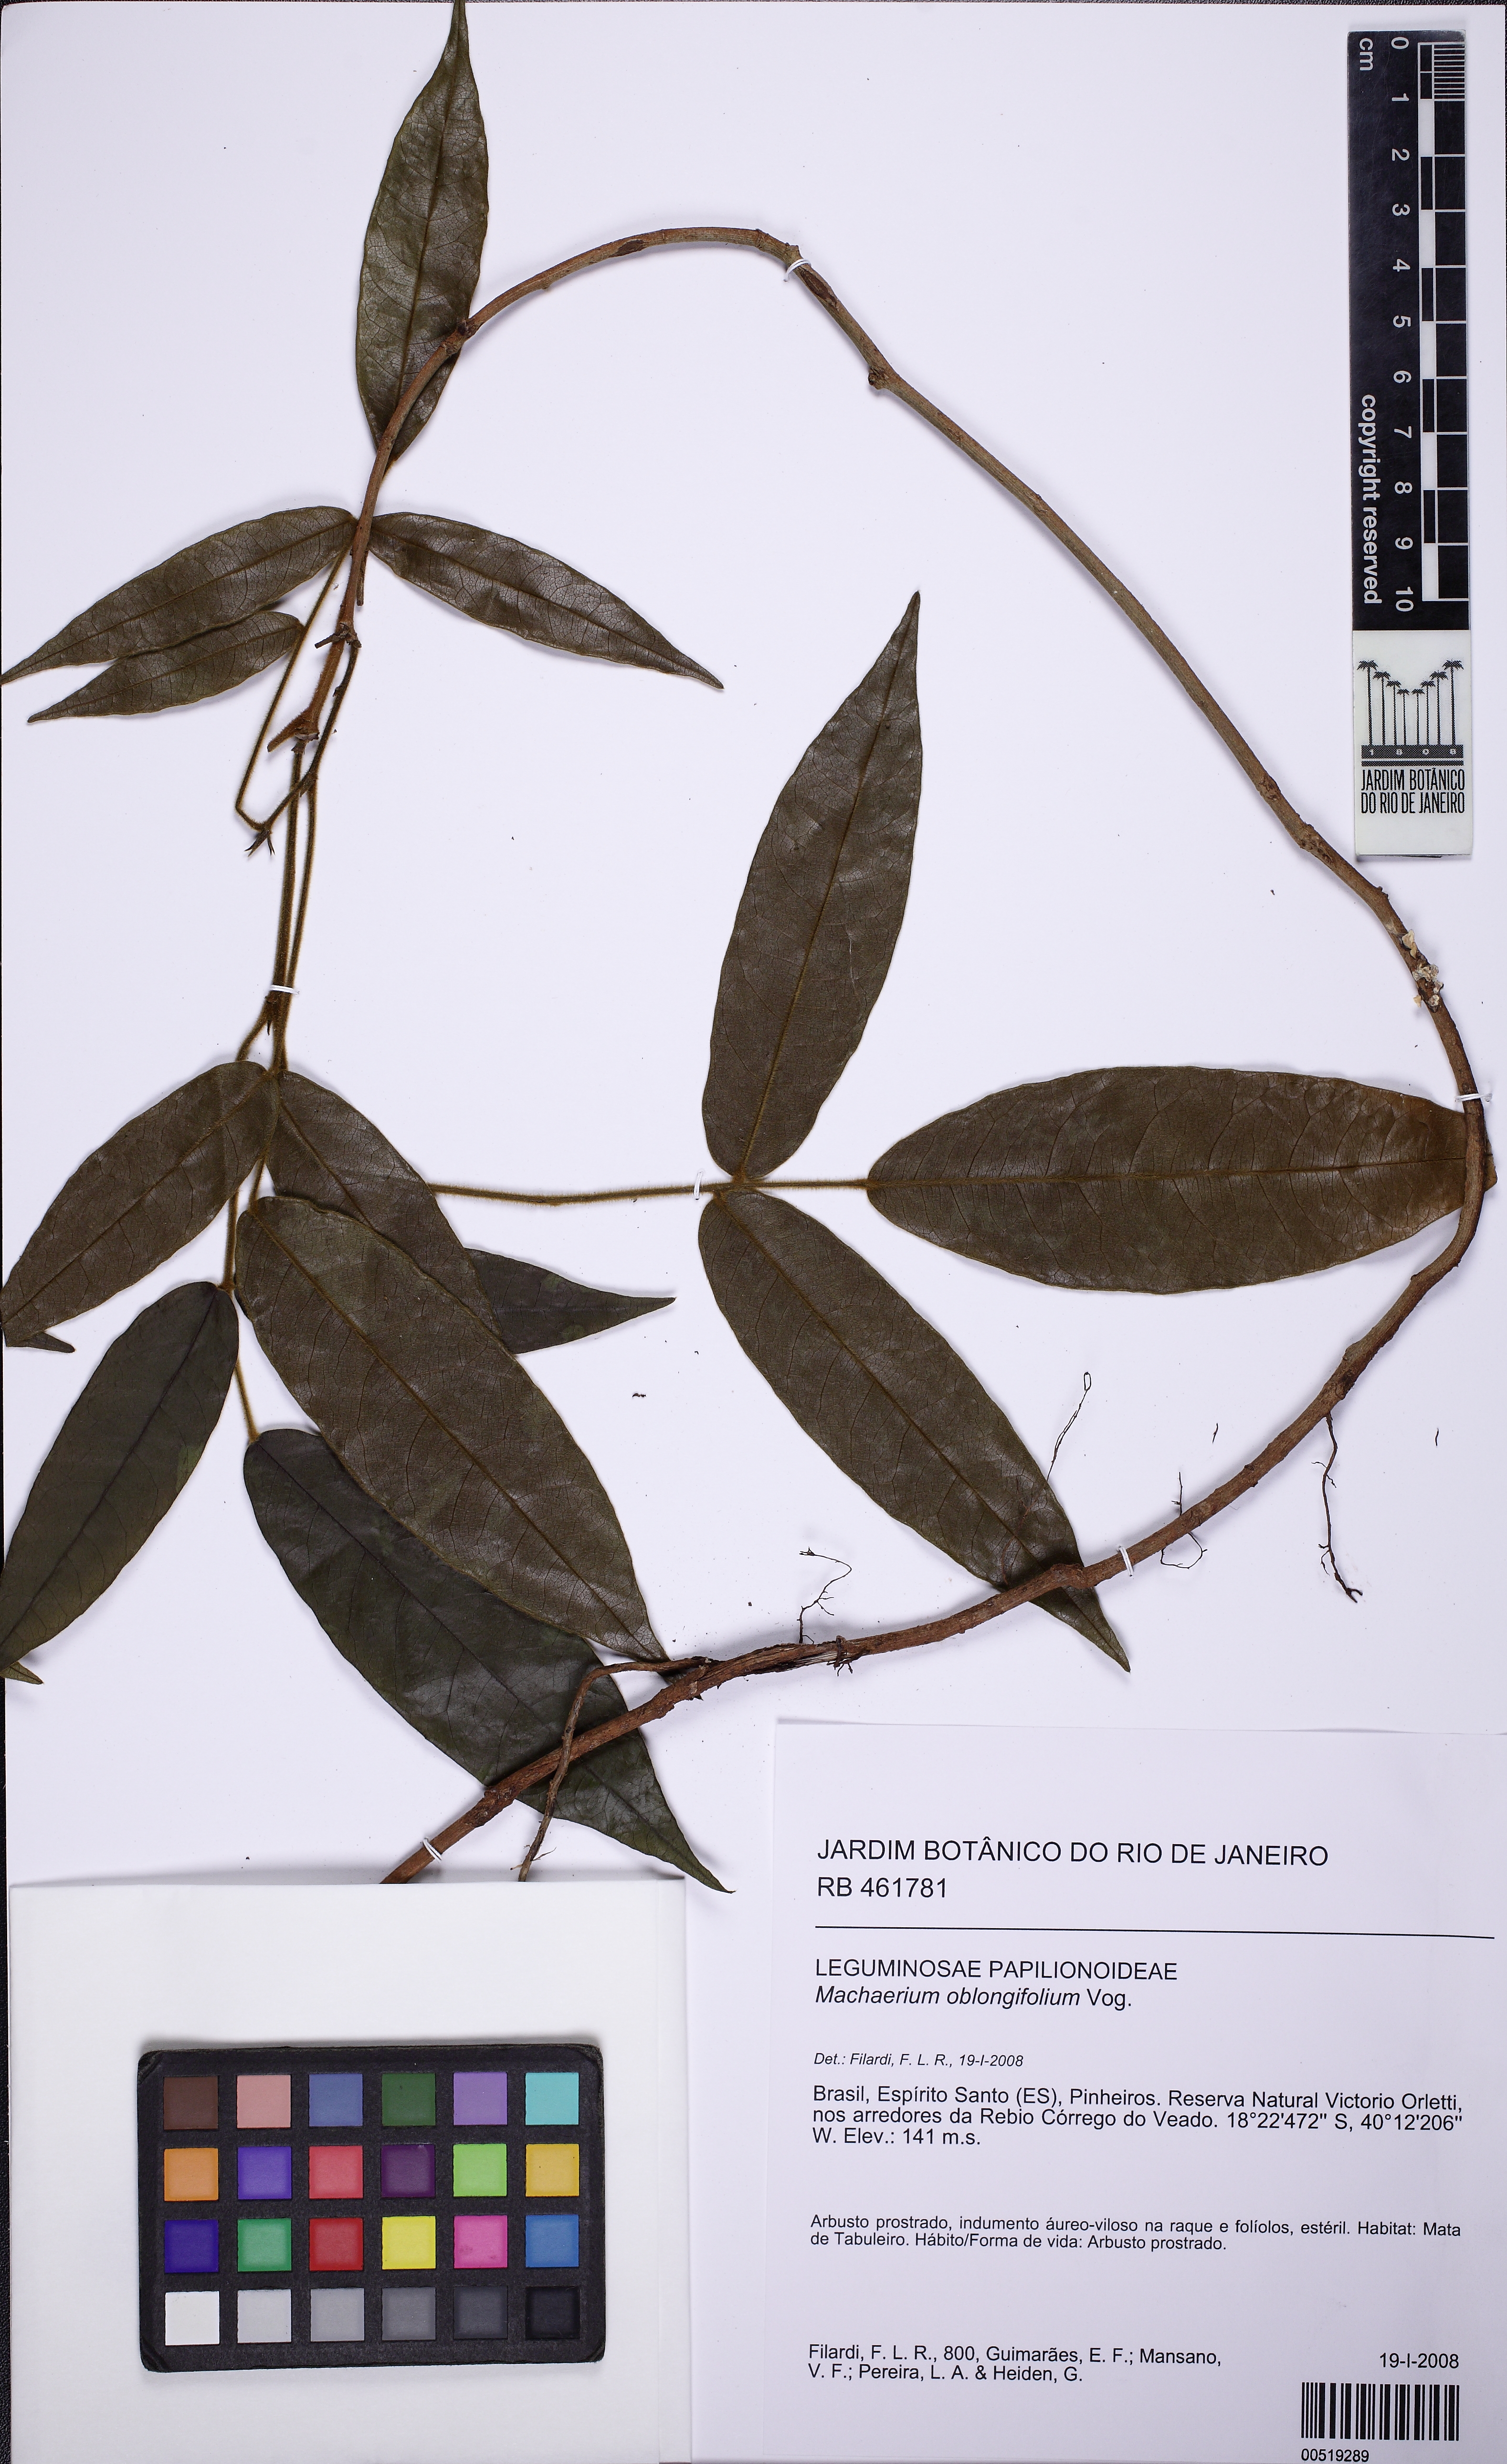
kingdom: Plantae
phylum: Tracheophyta
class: Magnoliopsida
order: Fabales
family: Fabaceae
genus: Machaerium
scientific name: Machaerium oblongifolium
